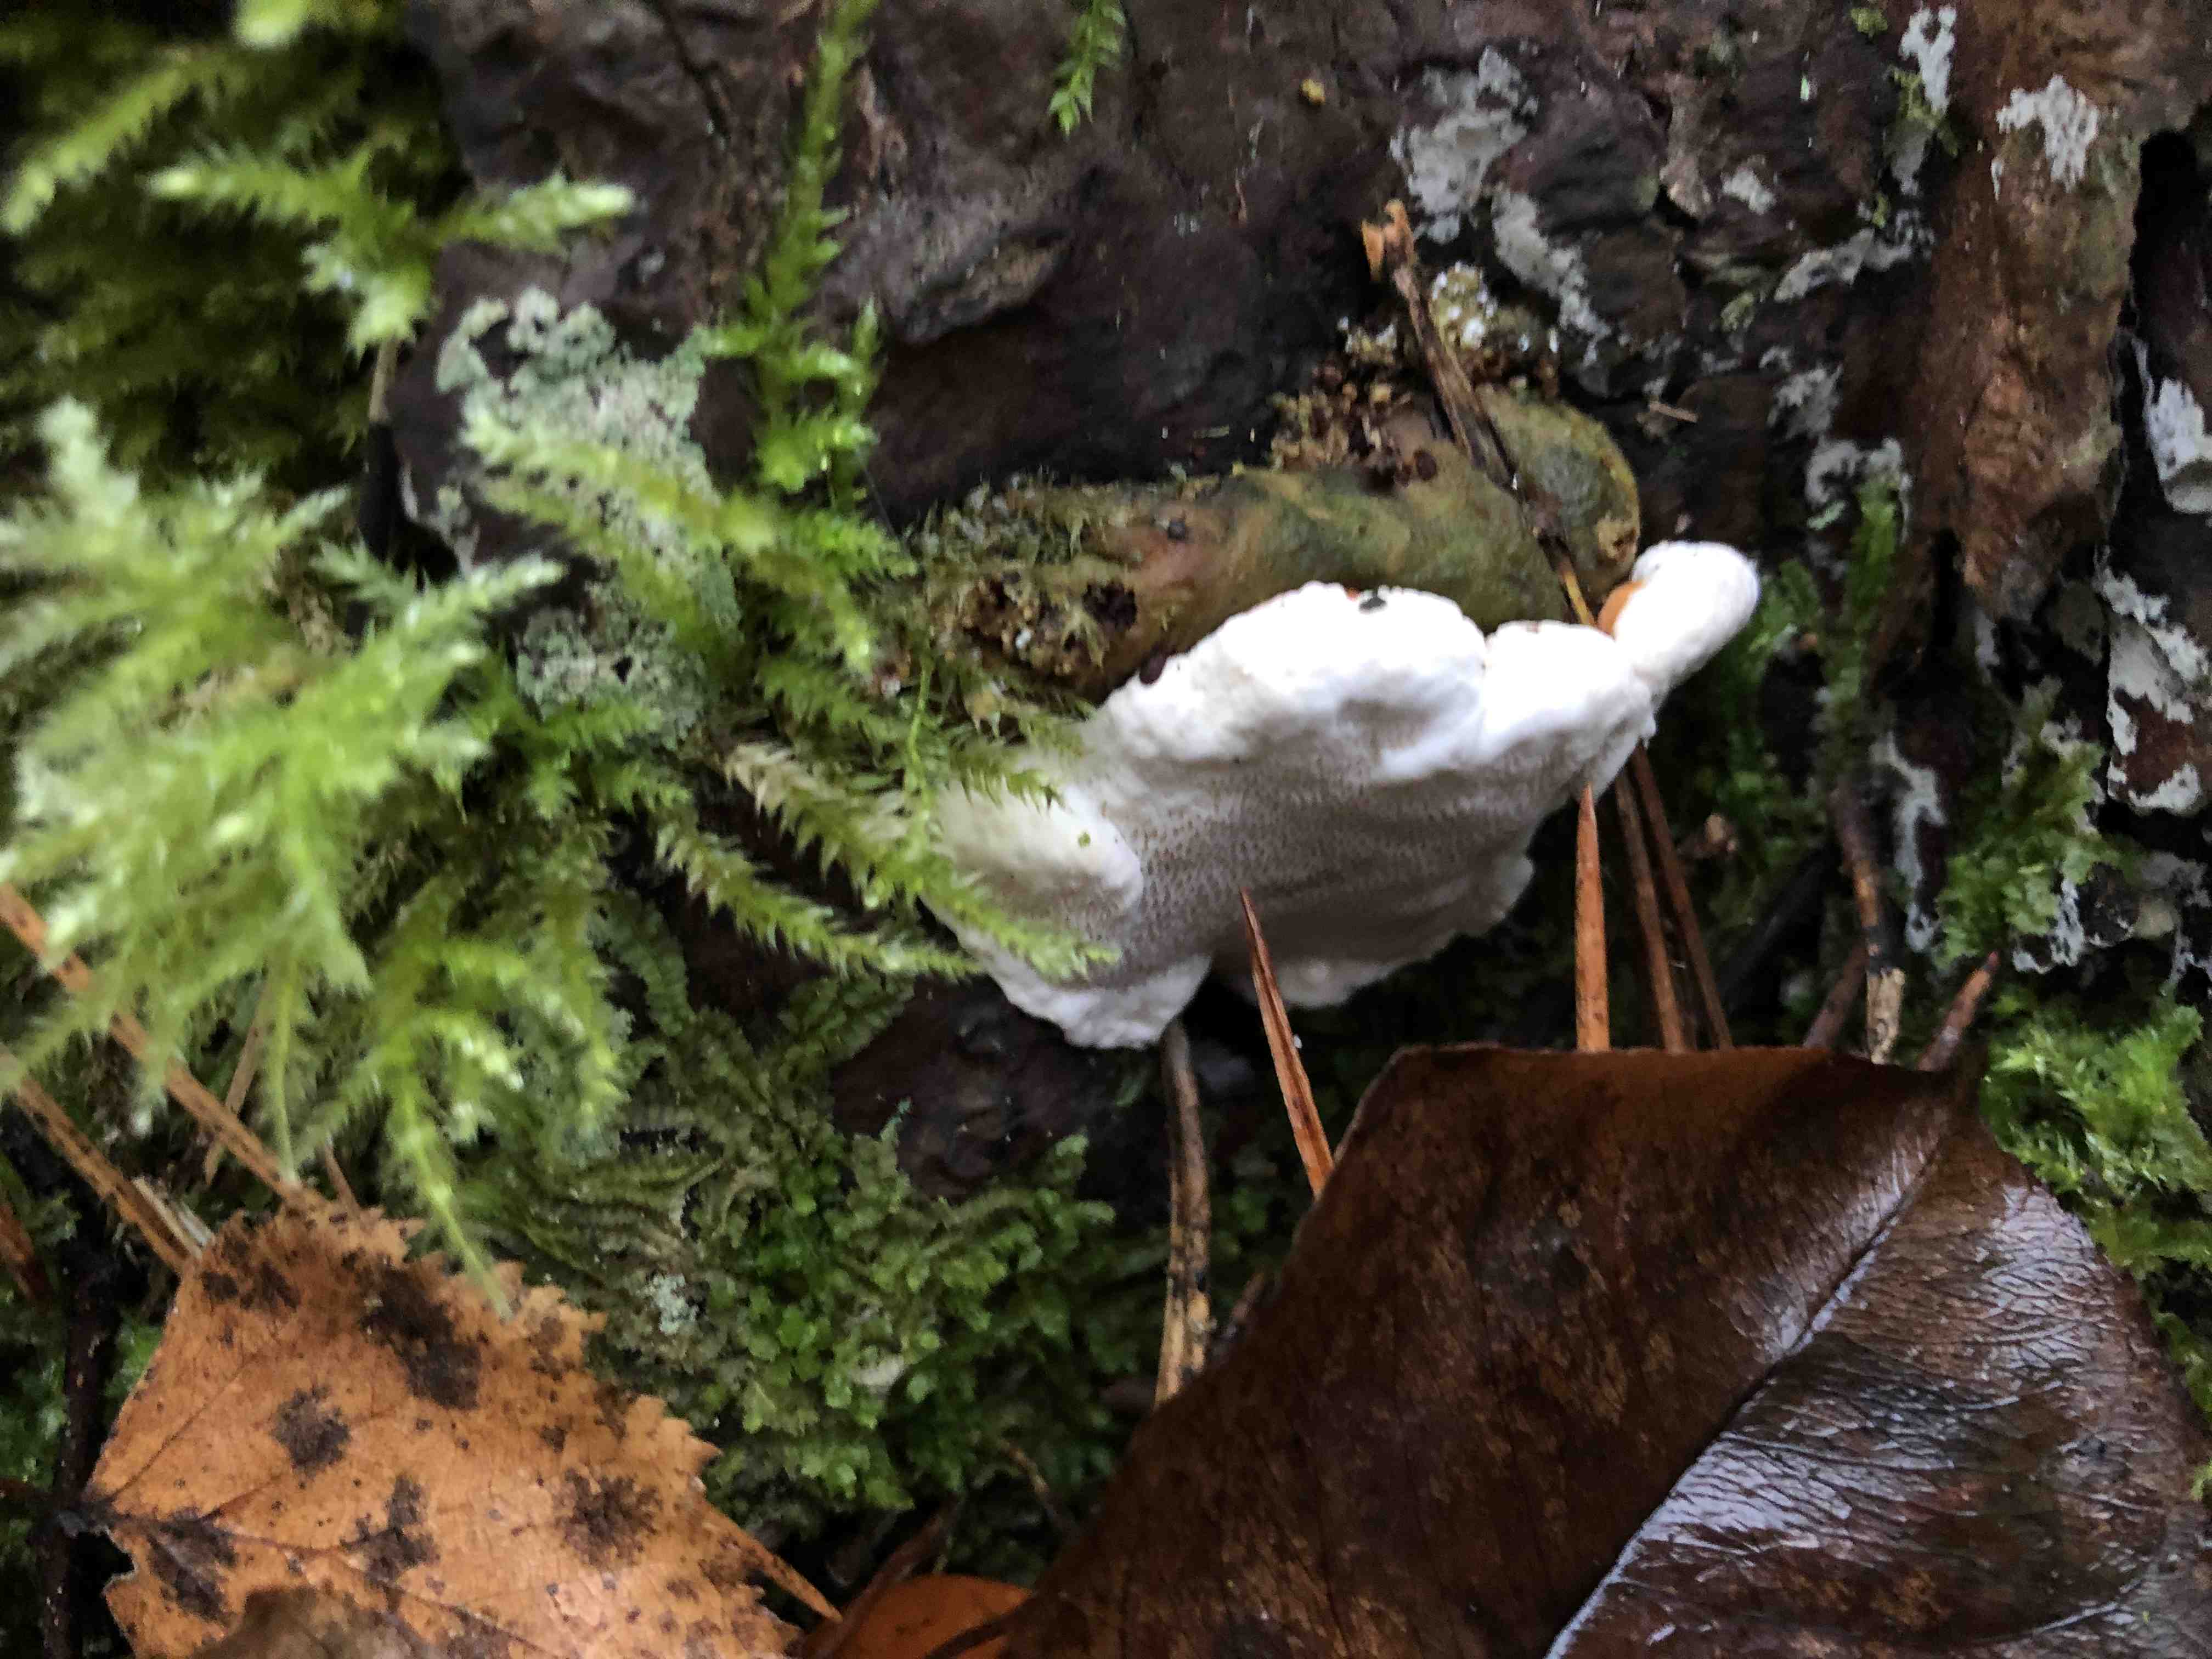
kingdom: Fungi
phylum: Basidiomycota
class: Agaricomycetes
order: Russulales
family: Bondarzewiaceae
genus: Heterobasidion
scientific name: Heterobasidion annosum
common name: almindelig rodfordærver
